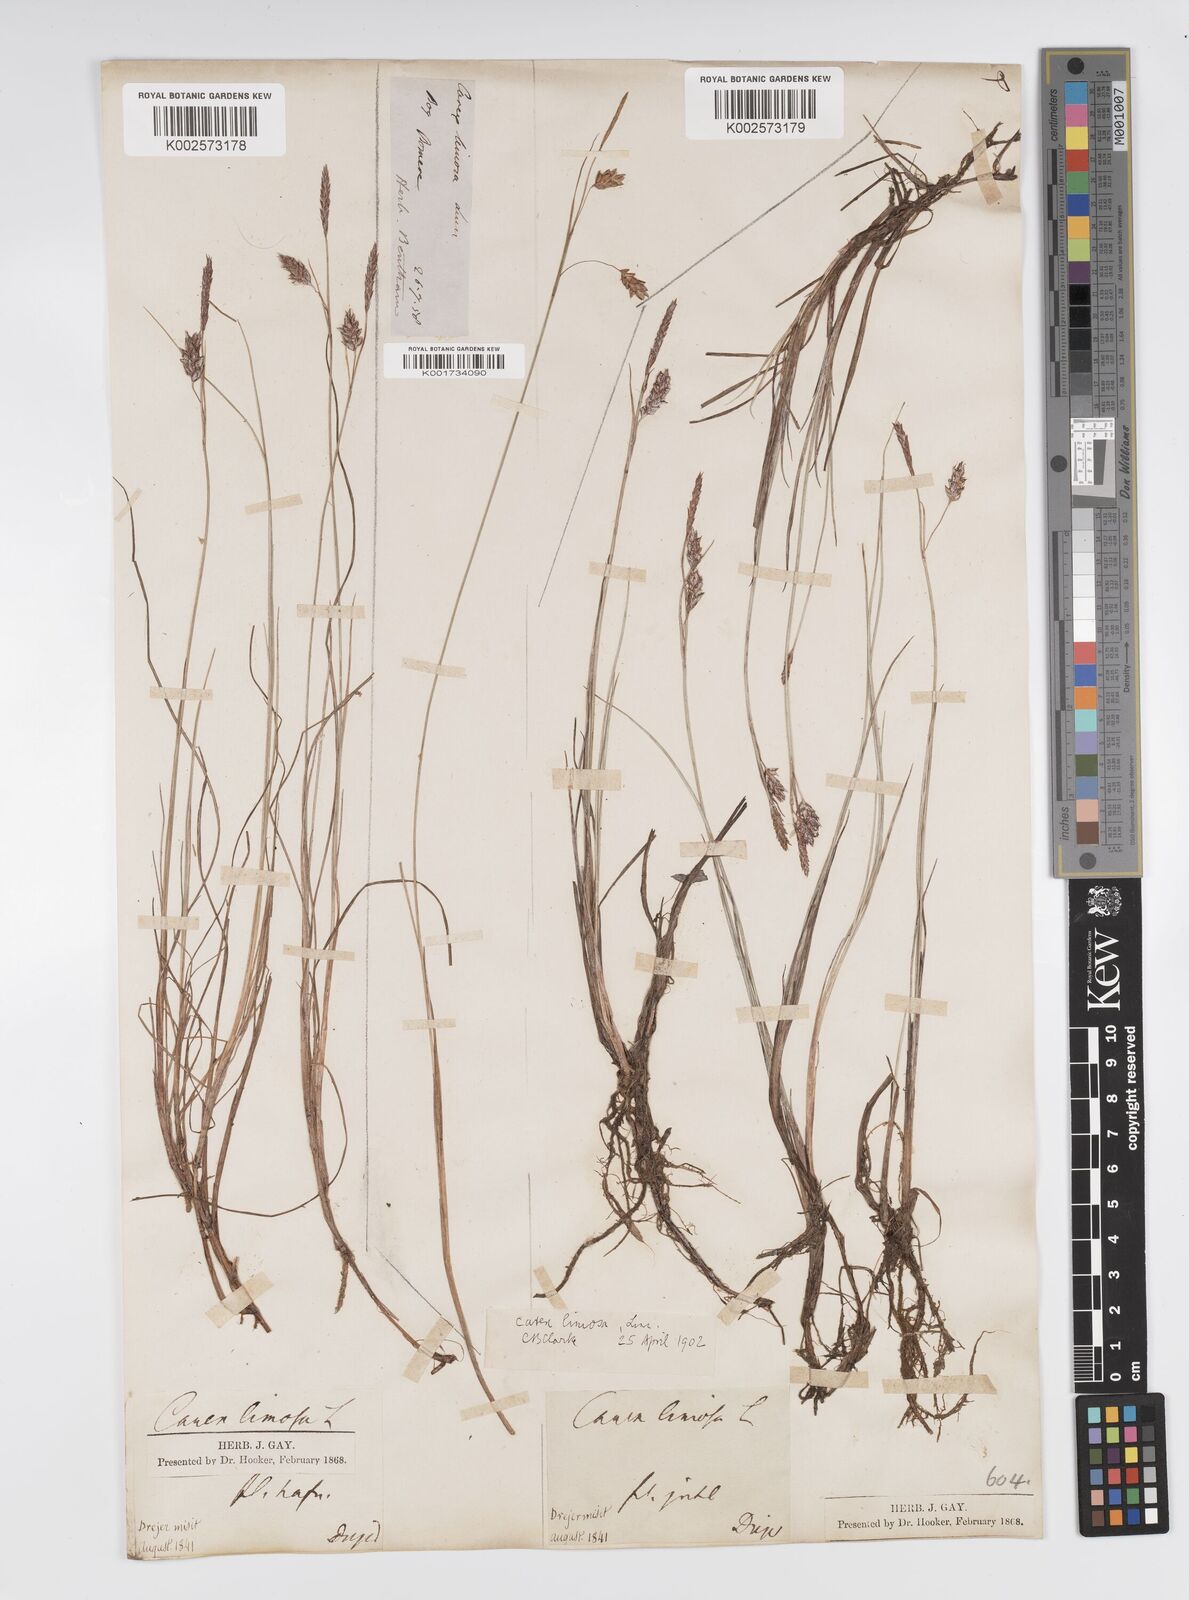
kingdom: Plantae
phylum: Tracheophyta
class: Liliopsida
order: Poales
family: Cyperaceae
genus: Carex
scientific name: Carex limosa
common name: Bog sedge
